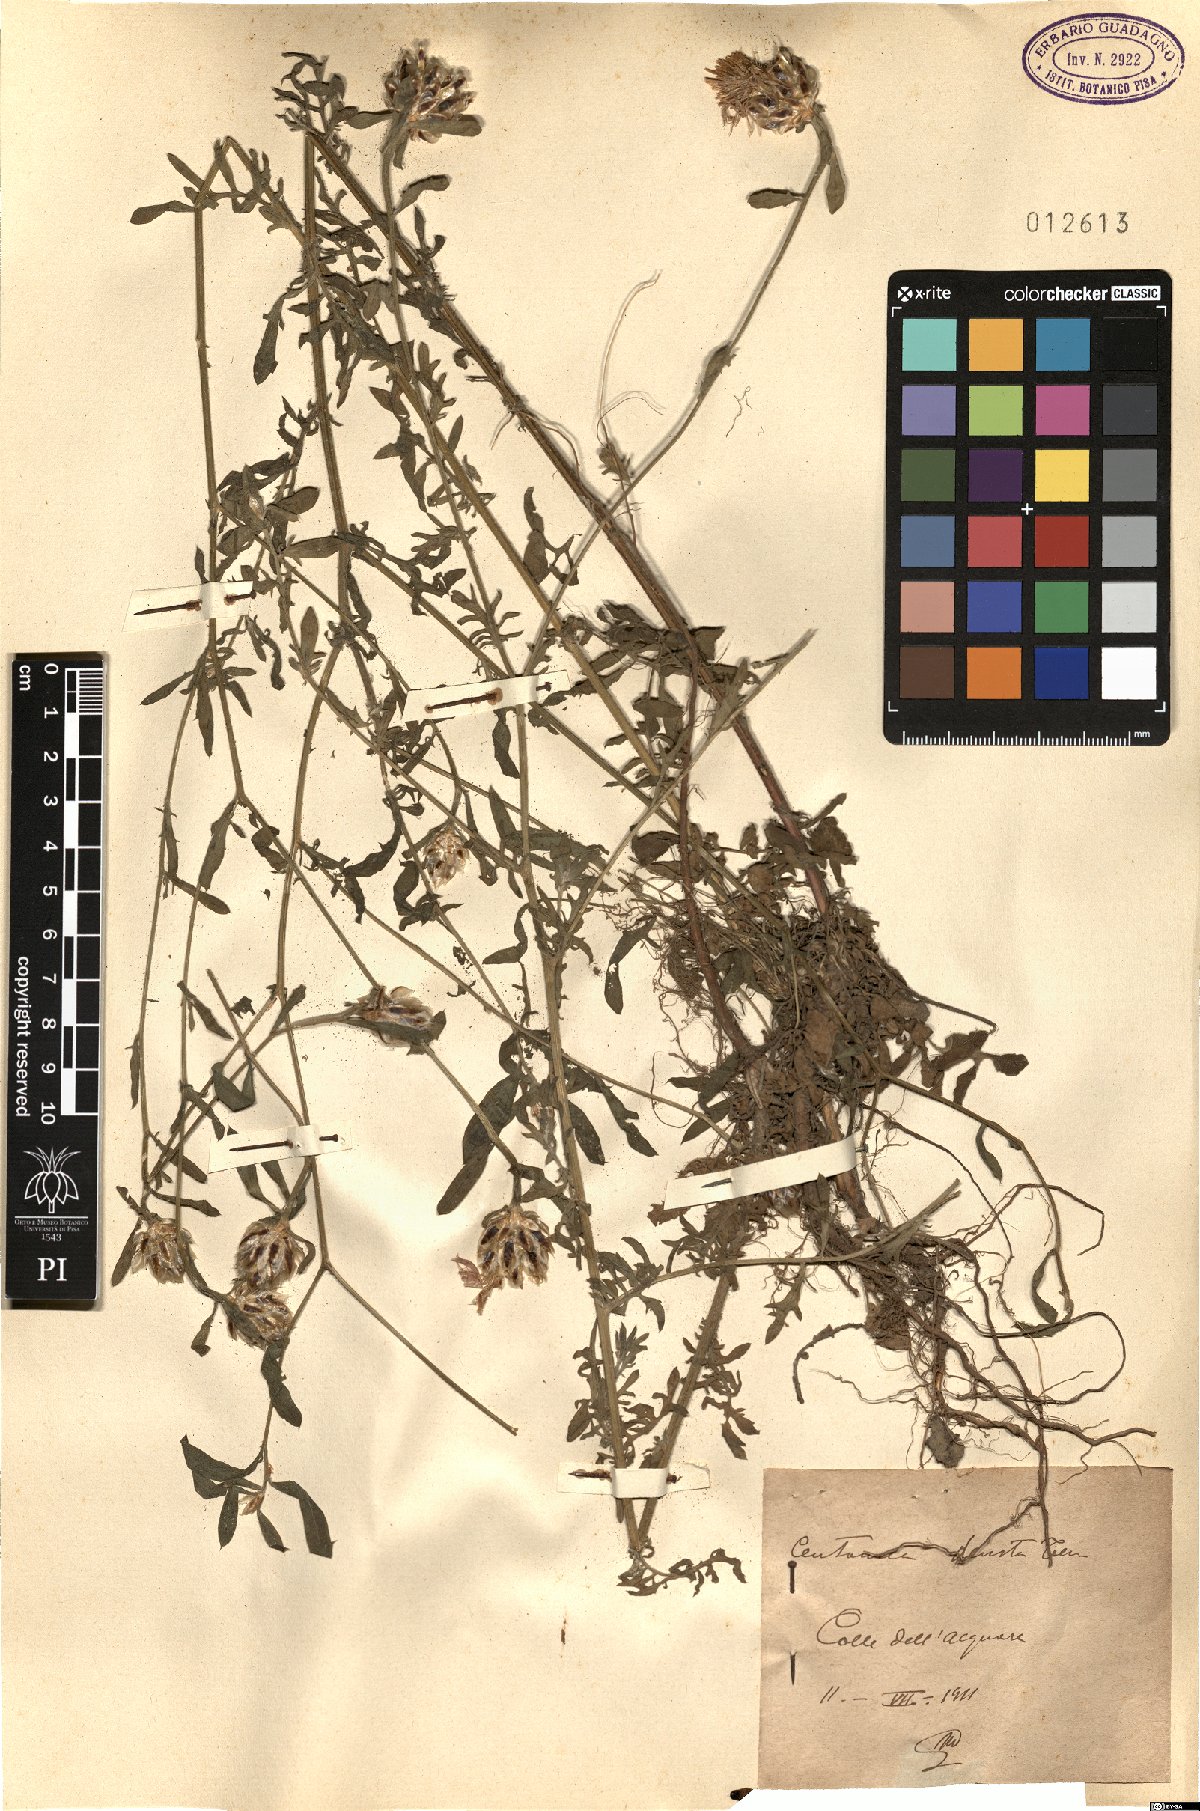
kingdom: Plantae
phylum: Tracheophyta
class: Magnoliopsida
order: Asterales
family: Asteraceae
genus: Centaurea
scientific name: Centaurea deusta
